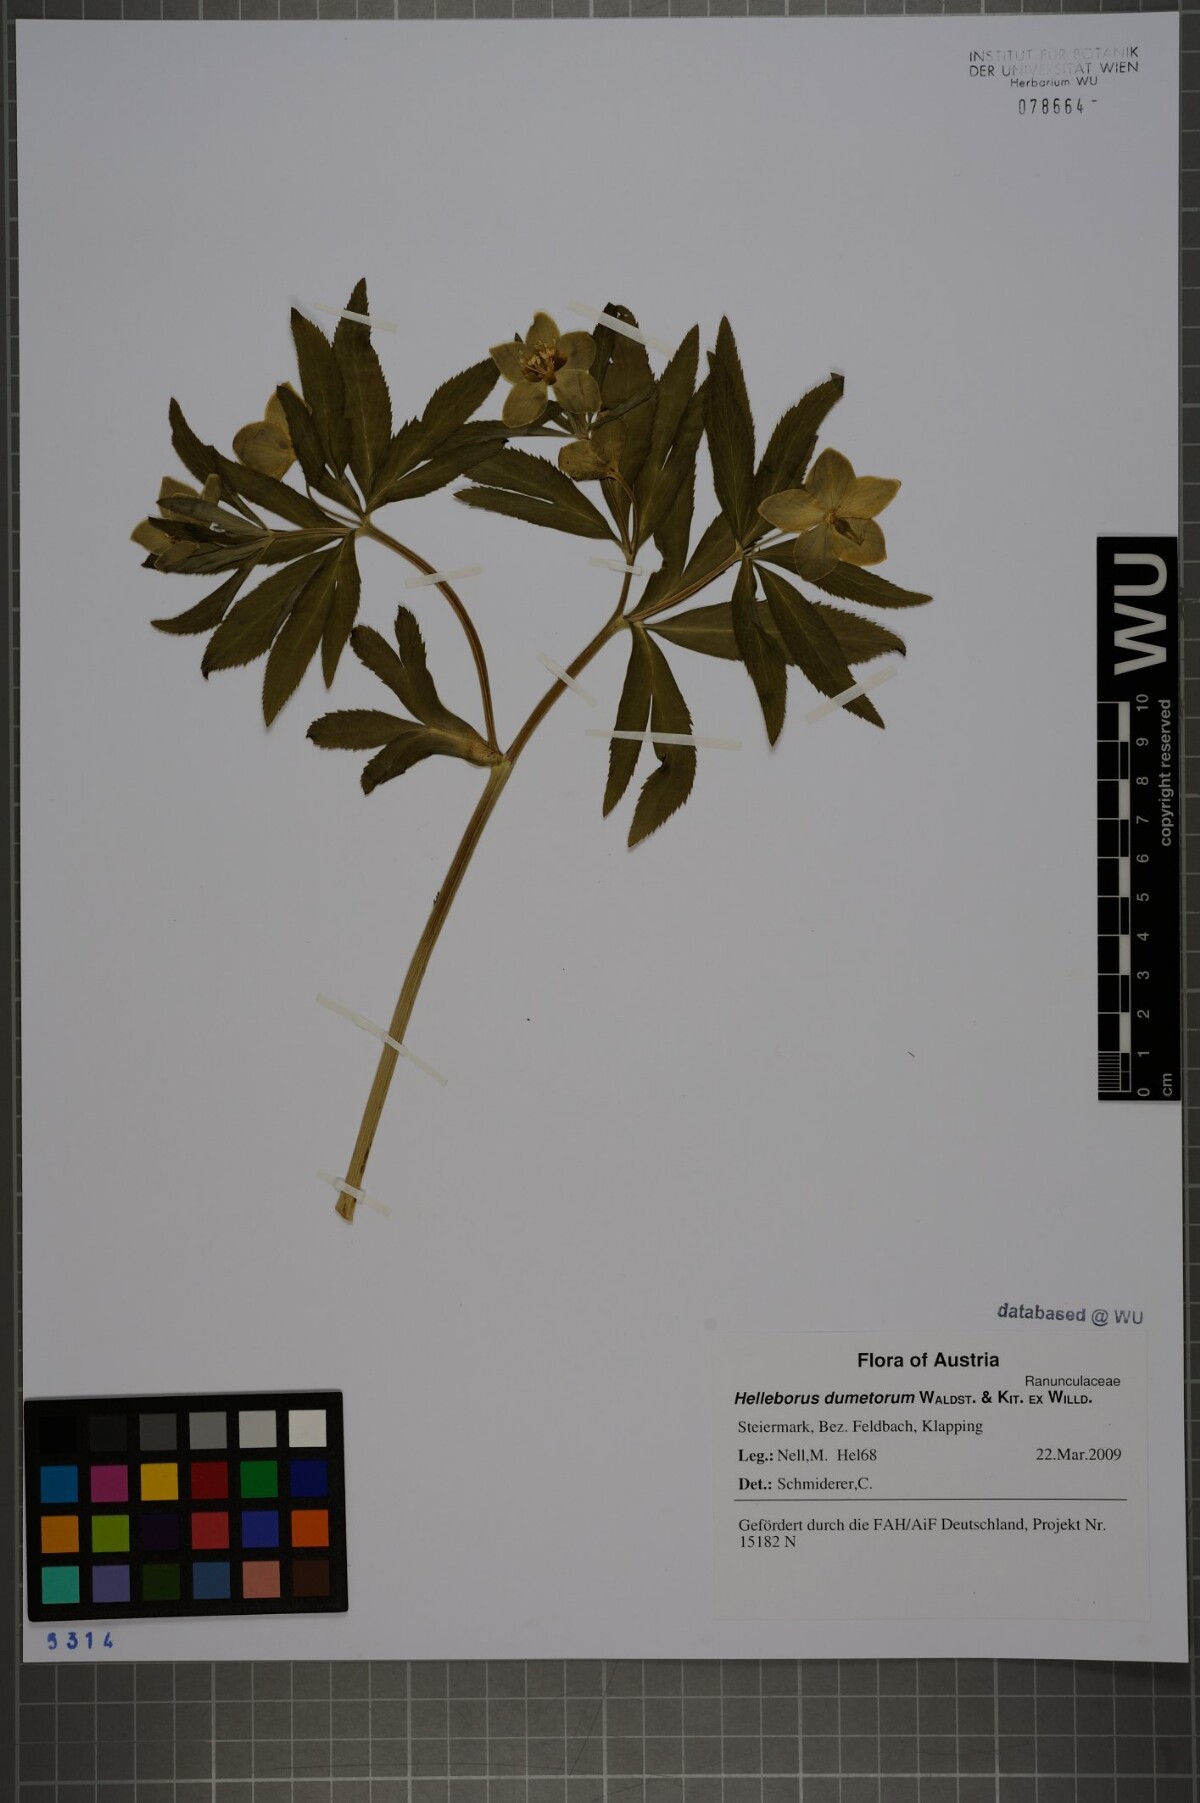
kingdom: Plantae
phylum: Tracheophyta
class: Magnoliopsida
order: Ranunculales
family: Ranunculaceae
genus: Helleborus
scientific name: Helleborus dumetorum
